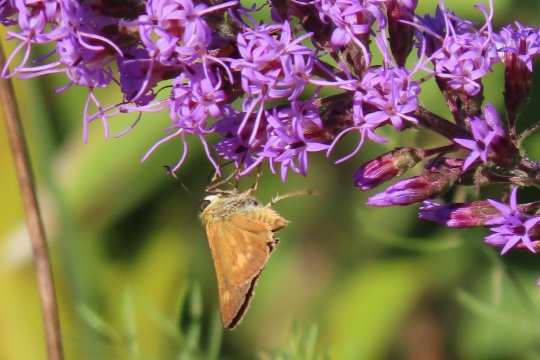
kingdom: Animalia
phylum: Arthropoda
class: Insecta
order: Lepidoptera
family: Hesperiidae
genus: Wallengrenia
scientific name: Wallengrenia otho
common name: Southern Broken-Dash
